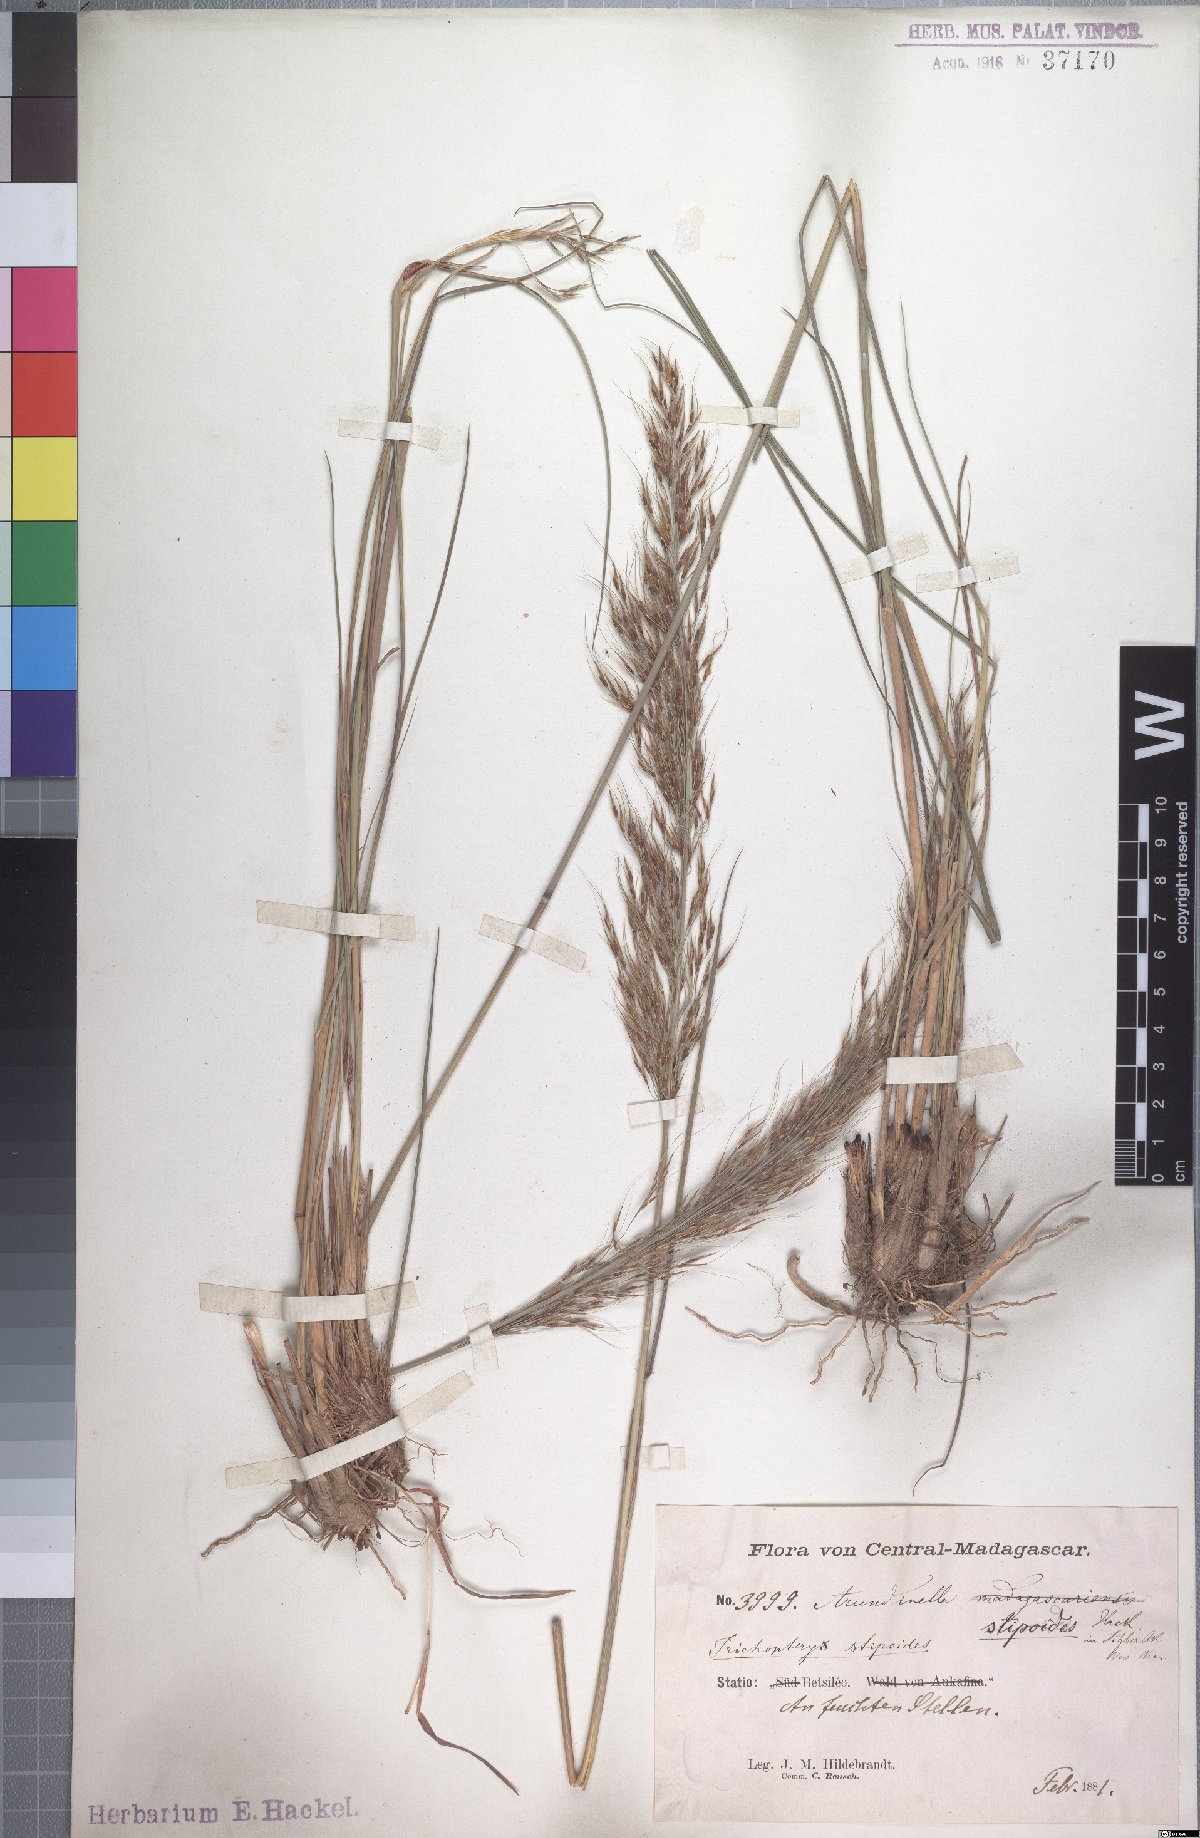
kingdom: Plantae
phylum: Tracheophyta
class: Liliopsida
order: Poales
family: Poaceae
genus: Loudetia
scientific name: Loudetia simplex
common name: Common russet grass
